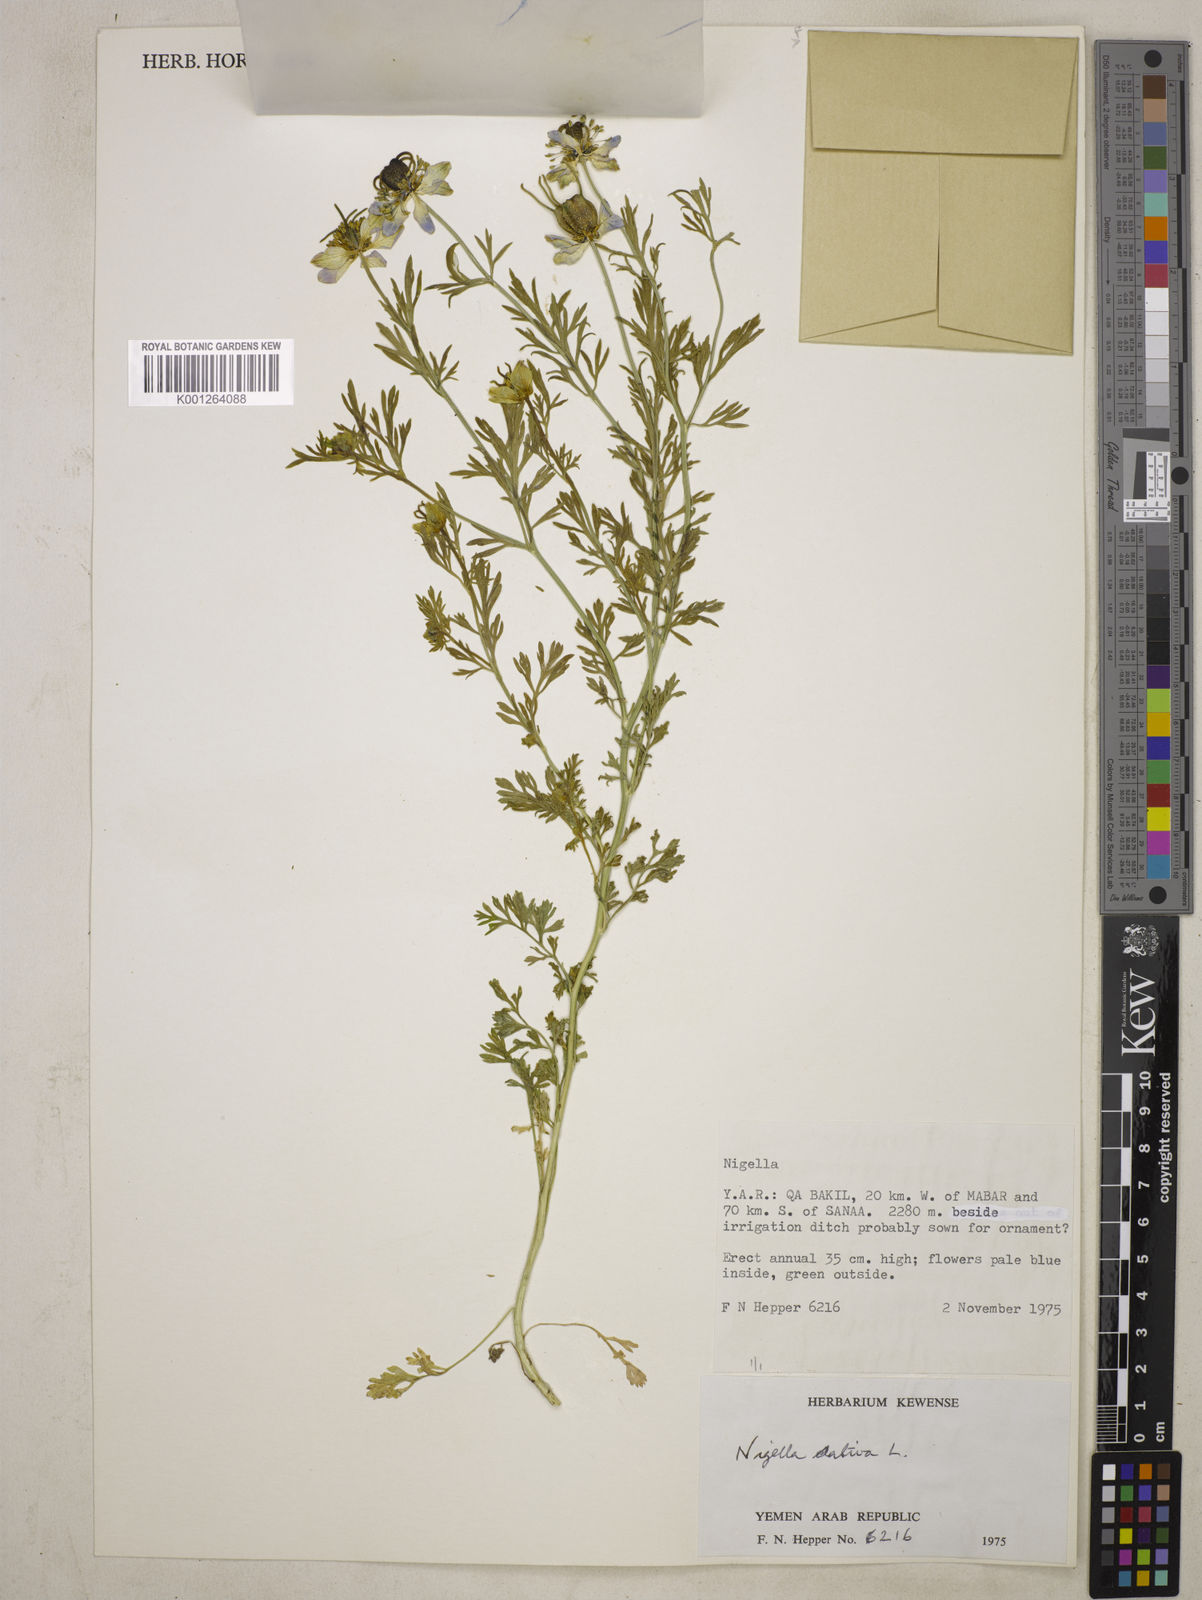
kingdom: Plantae
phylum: Tracheophyta
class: Magnoliopsida
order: Ranunculales
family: Ranunculaceae
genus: Nigella
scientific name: Nigella sativa
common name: Black-cumin
